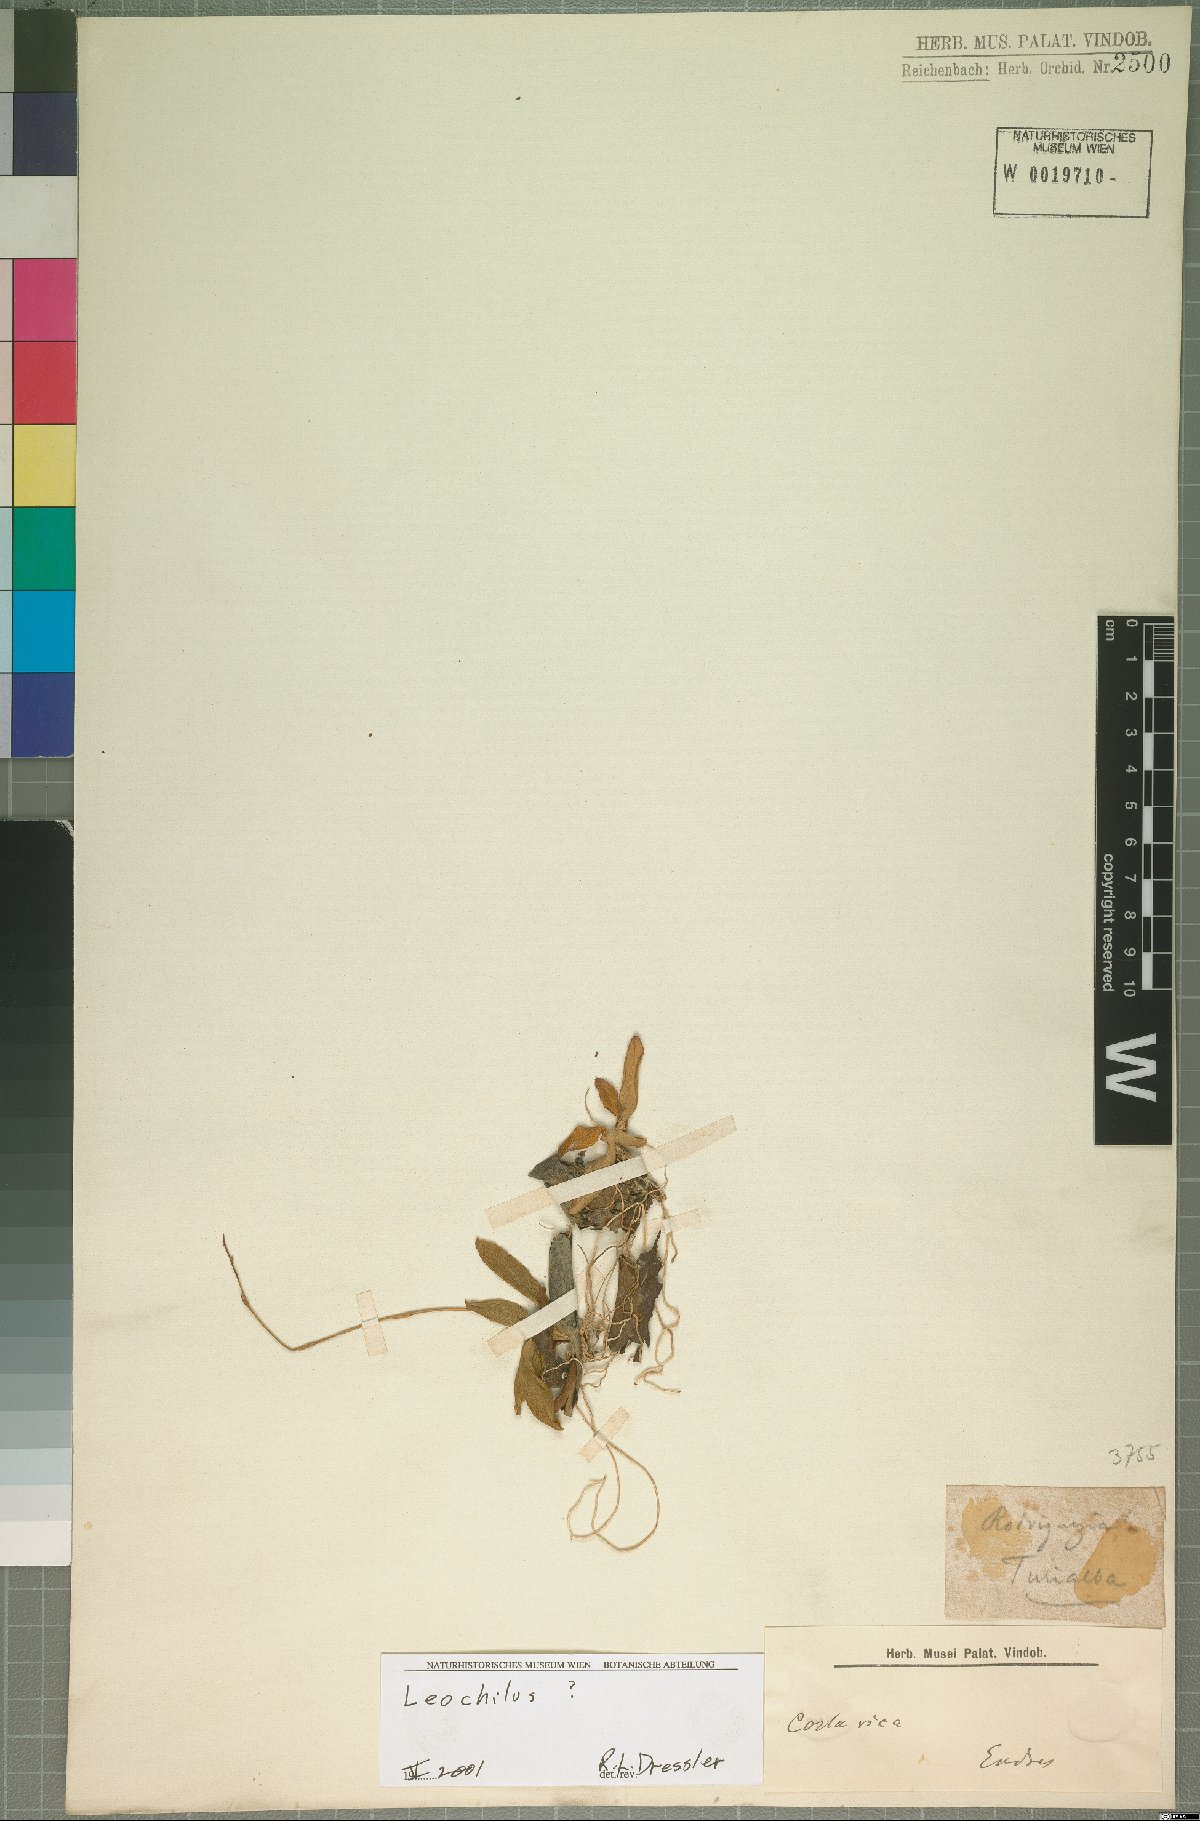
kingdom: Plantae
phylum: Tracheophyta
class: Liliopsida
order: Asparagales
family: Orchidaceae
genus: Leochilus
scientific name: Leochilus
